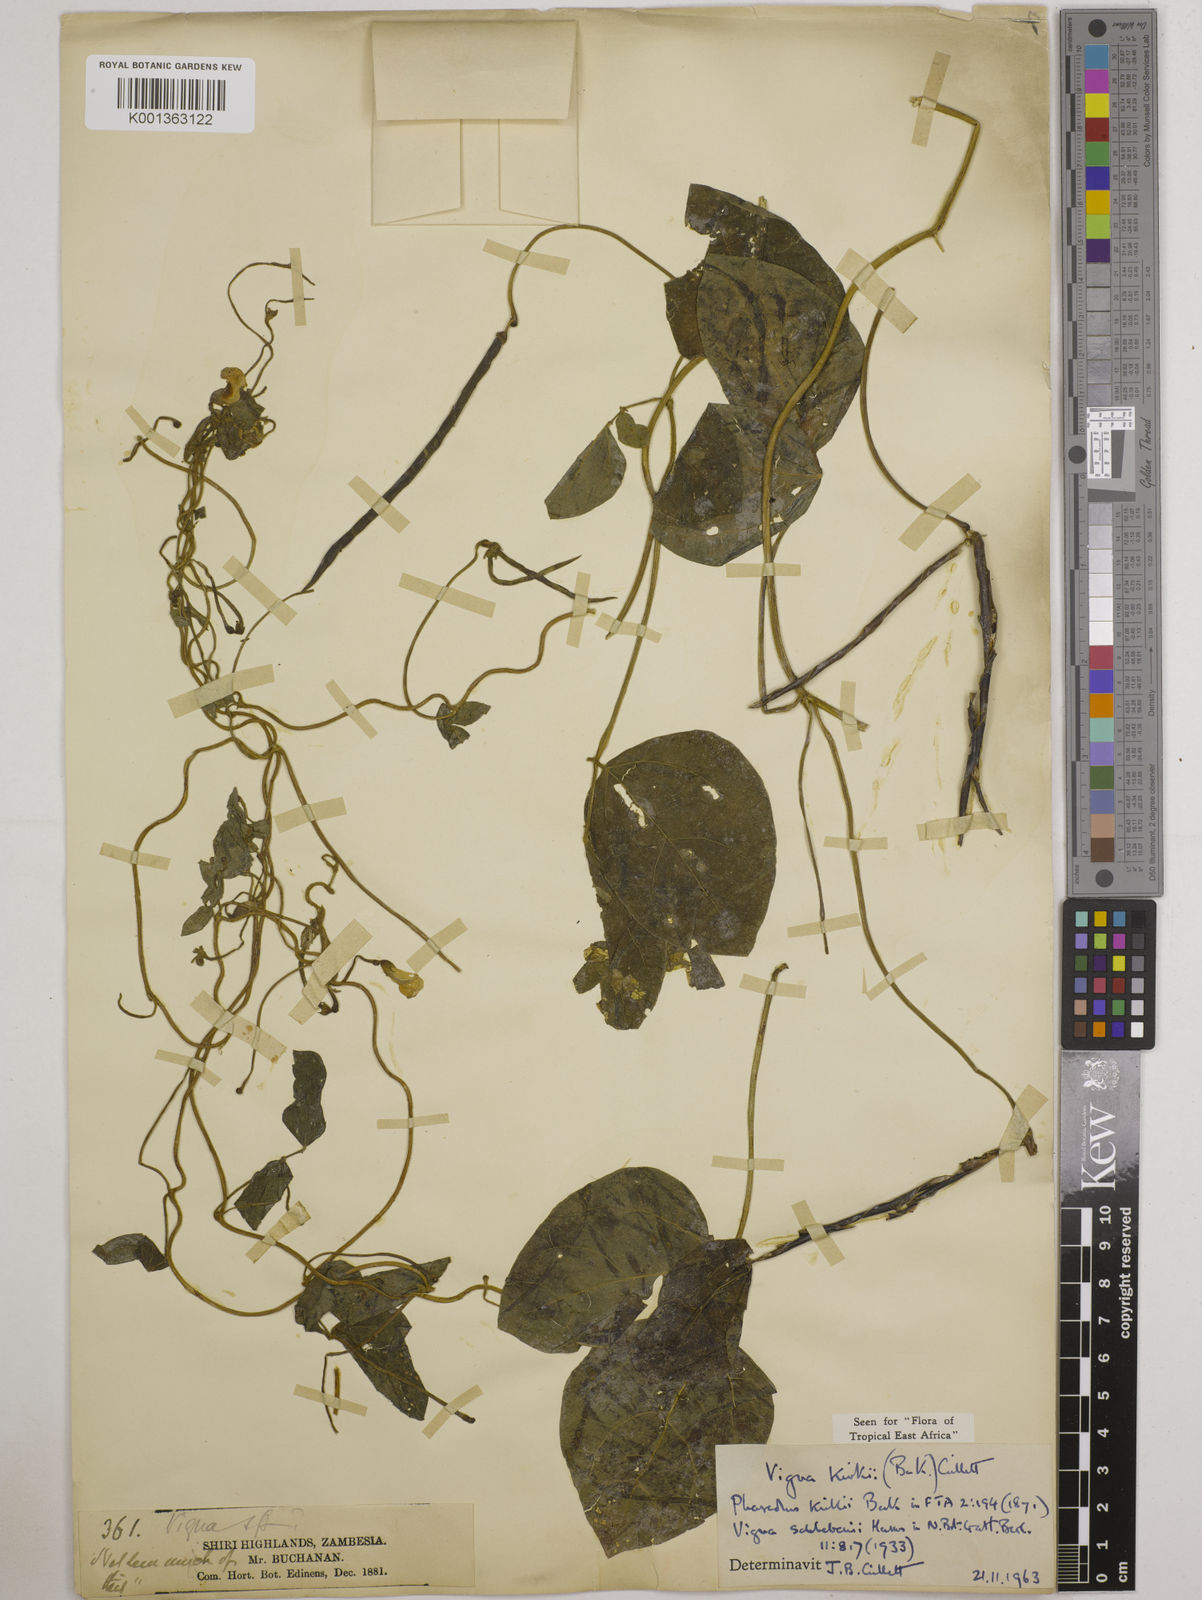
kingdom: Plantae
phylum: Tracheophyta
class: Magnoliopsida
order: Fabales
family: Fabaceae
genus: Vigna
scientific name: Vigna kirkii
